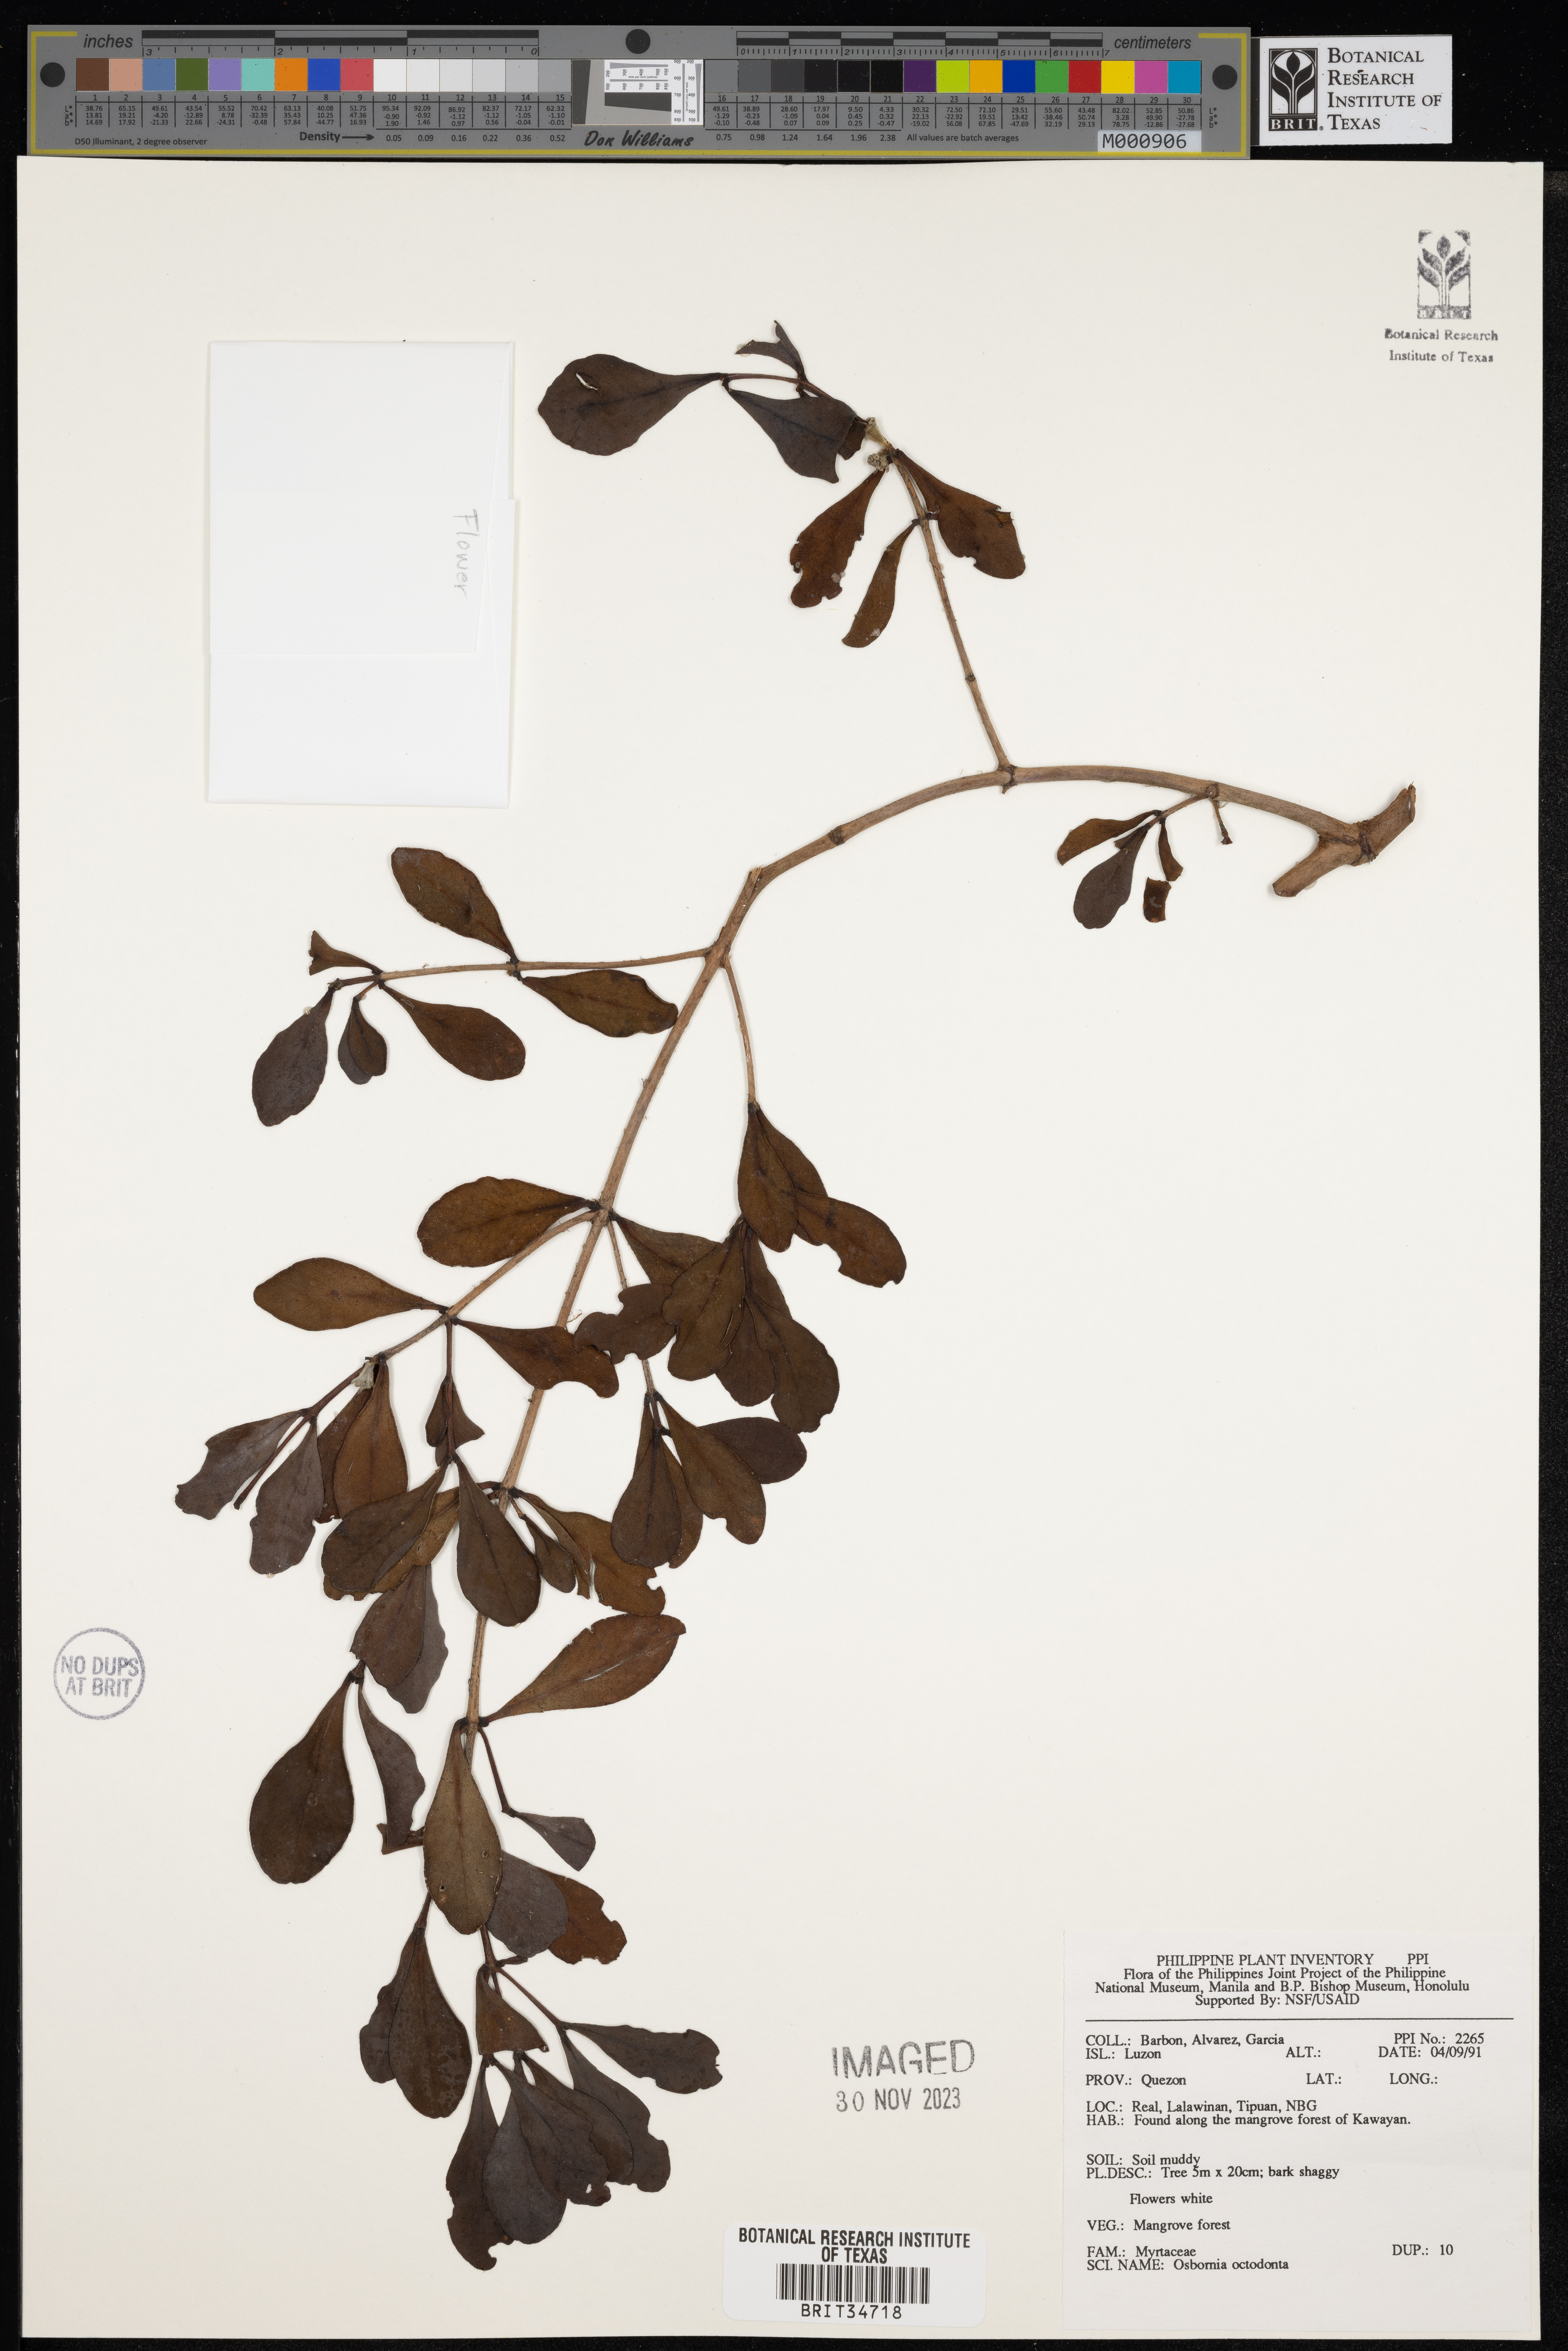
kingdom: Plantae
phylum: Tracheophyta
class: Magnoliopsida
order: Myrtales
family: Myrtaceae
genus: Osbornia
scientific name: Osbornia octodonta
